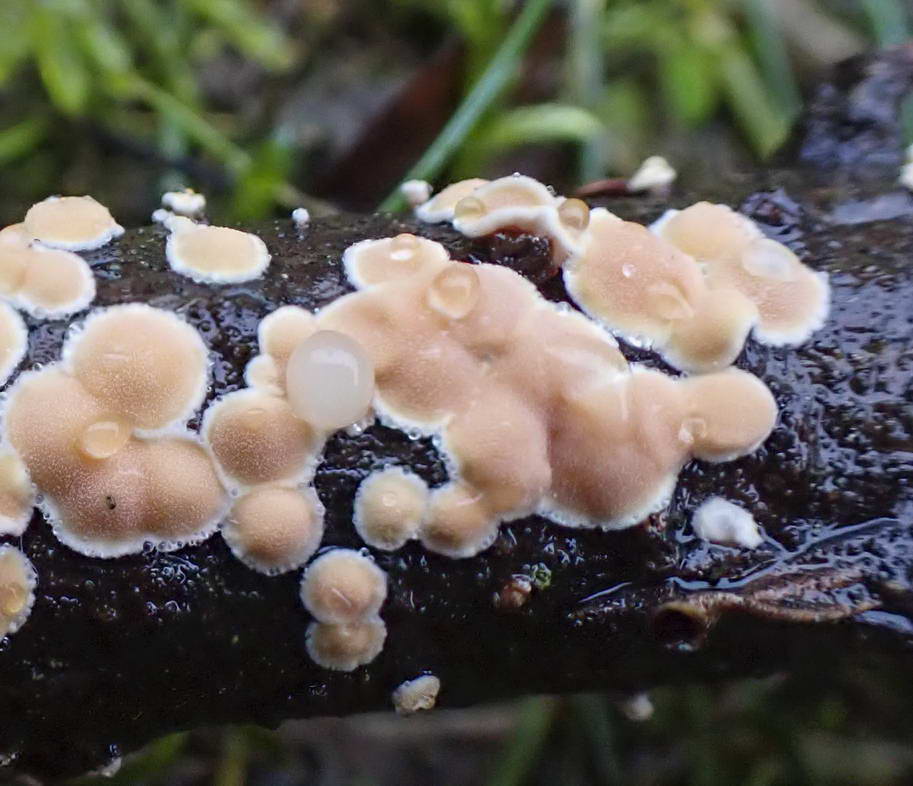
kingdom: Fungi
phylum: Basidiomycota
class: Tremellomycetes
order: Tremellales
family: Tremellaceae
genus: Phaeotremella
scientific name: Phaeotremella simplex
